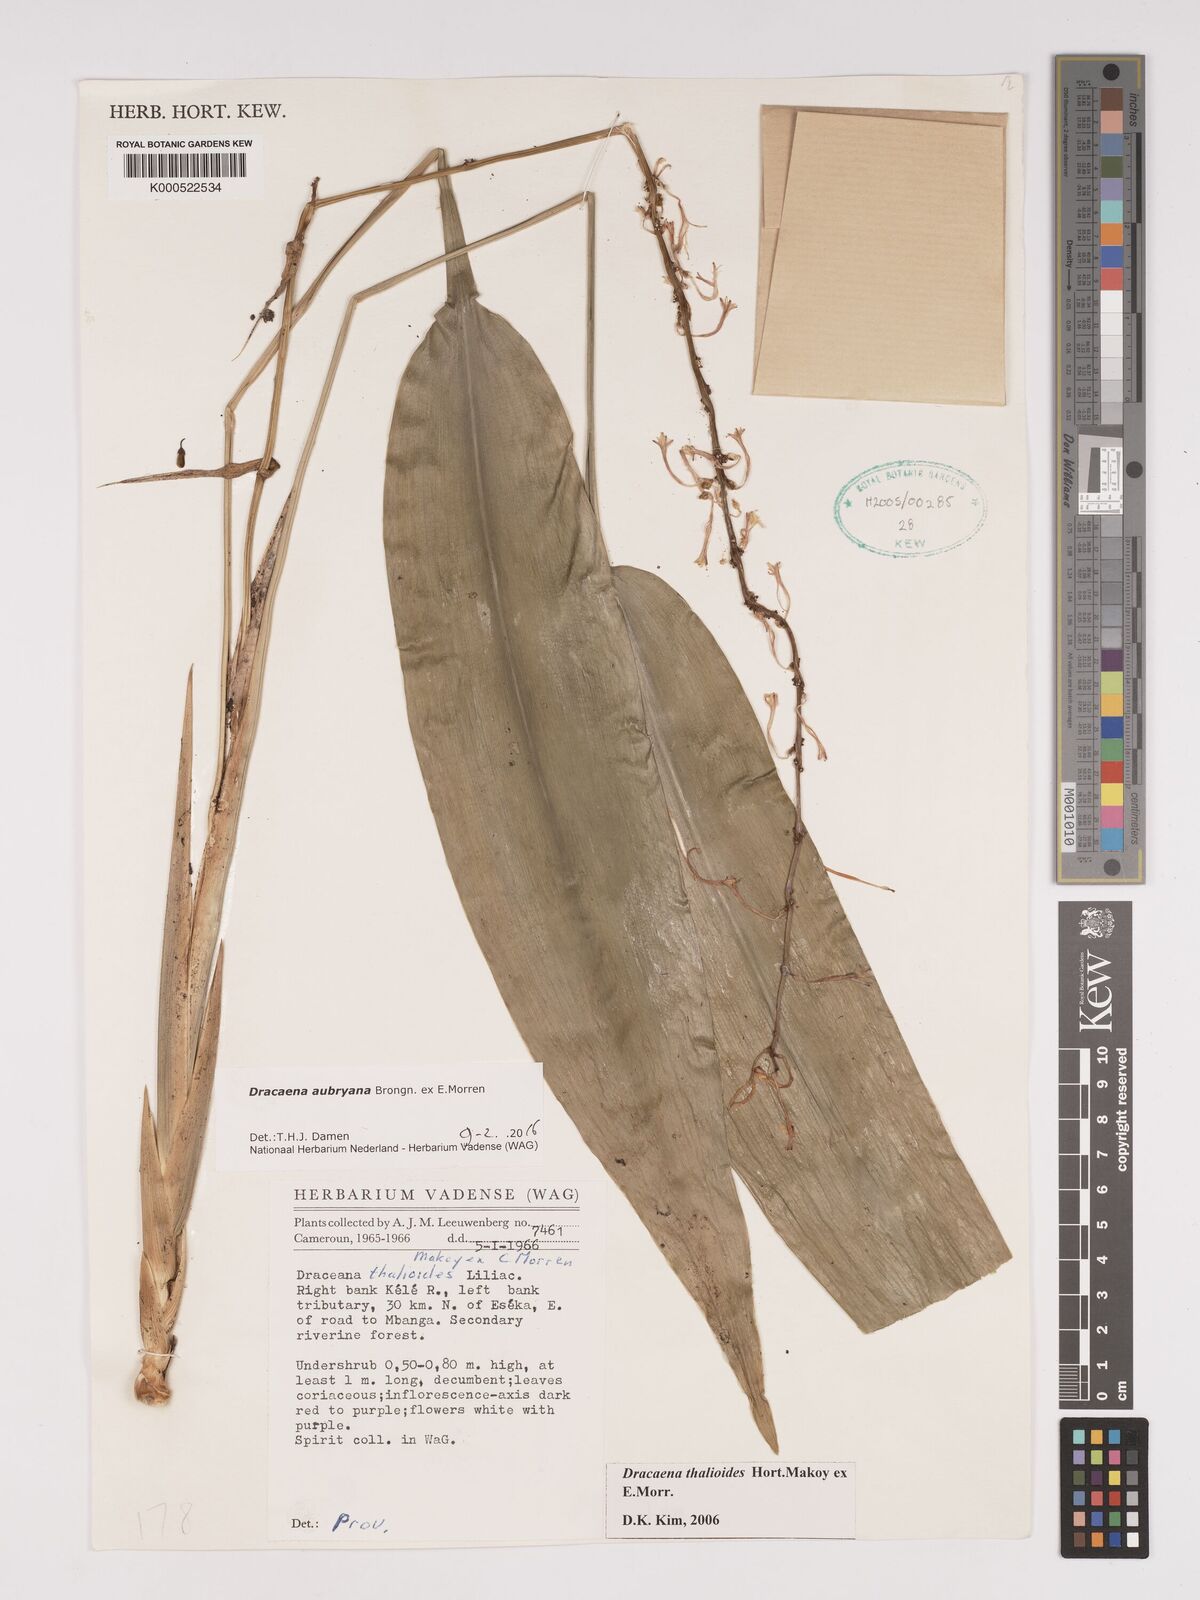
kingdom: Plantae
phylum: Tracheophyta
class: Liliopsida
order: Asparagales
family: Asparagaceae
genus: Dracaena
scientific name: Dracaena aubryana
